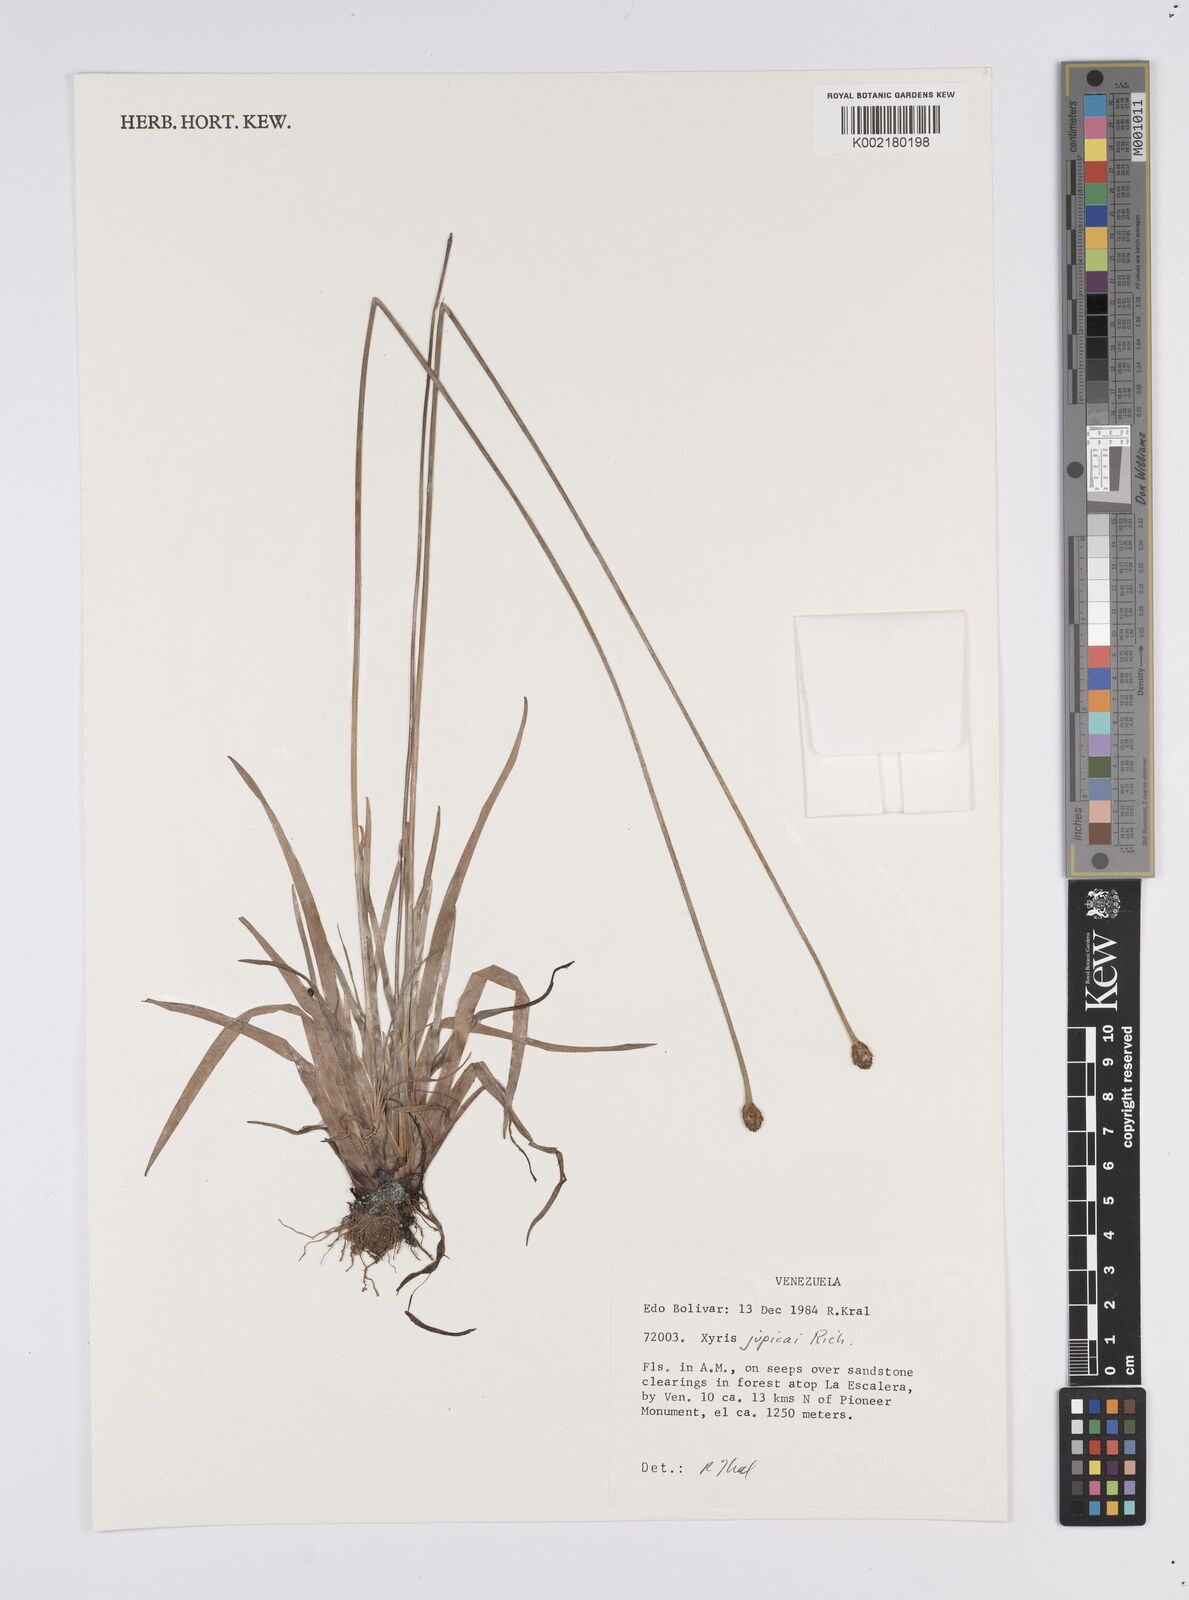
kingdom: Plantae
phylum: Tracheophyta
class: Liliopsida
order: Poales
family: Xyridaceae
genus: Xyris
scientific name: Xyris jupicai
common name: Richard's yelloweyed grass
